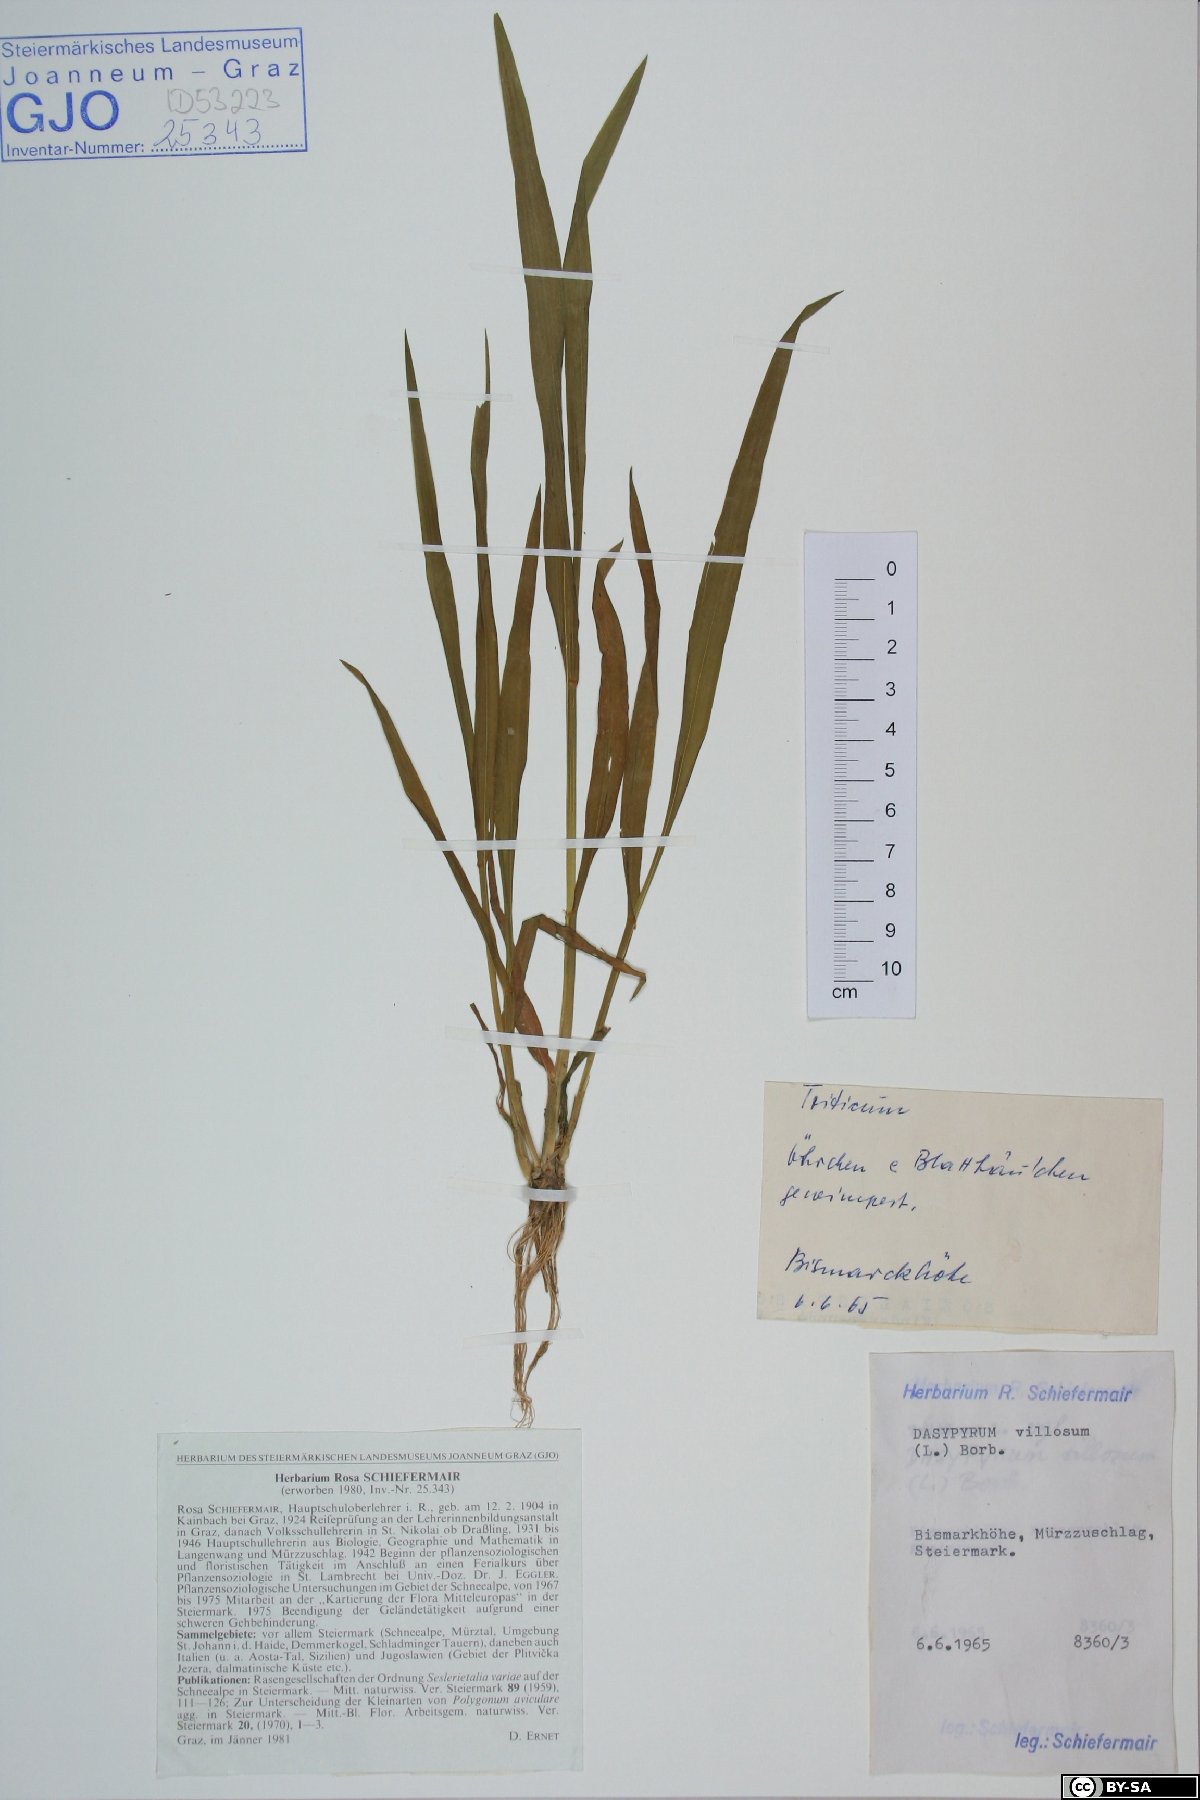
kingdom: Plantae
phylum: Tracheophyta
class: Liliopsida
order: Poales
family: Poaceae
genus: Dasypyrum
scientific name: Dasypyrum villosum
